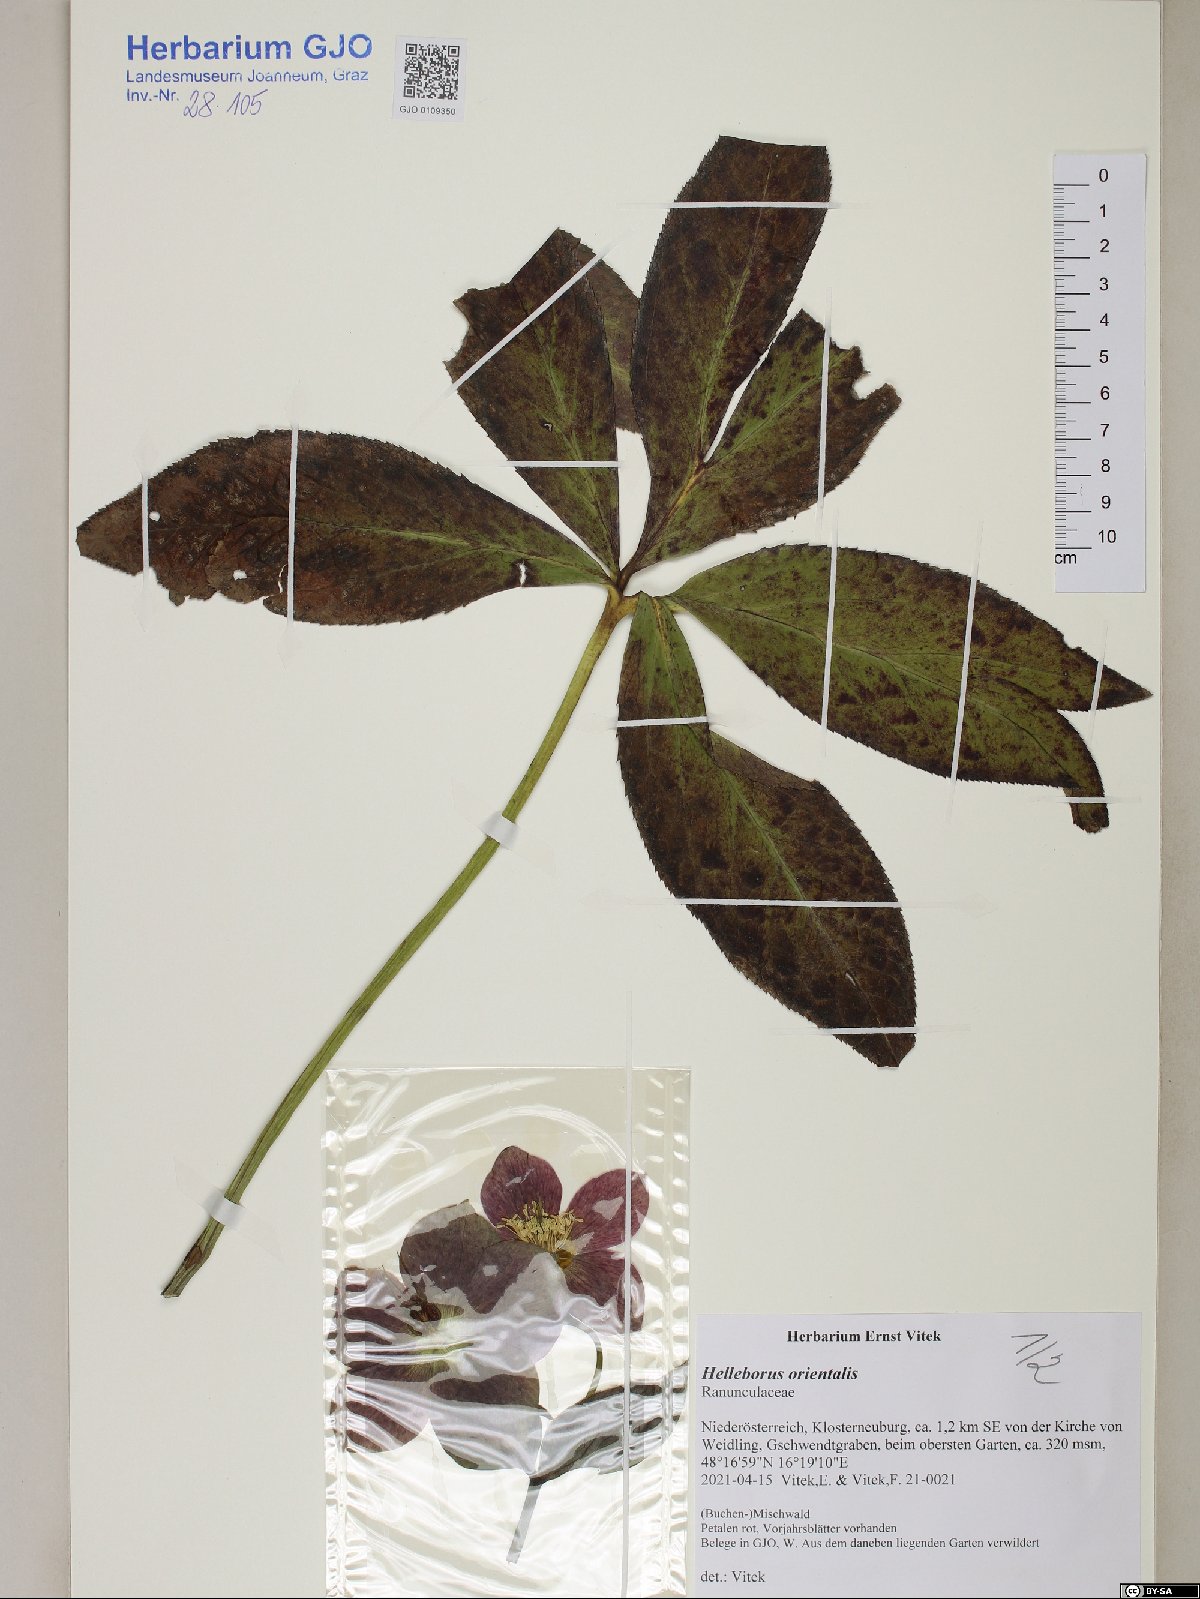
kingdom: Plantae
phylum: Tracheophyta
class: Magnoliopsida
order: Ranunculales
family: Ranunculaceae
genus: Helleborus
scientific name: Helleborus orientalis
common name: Lenten-rose
